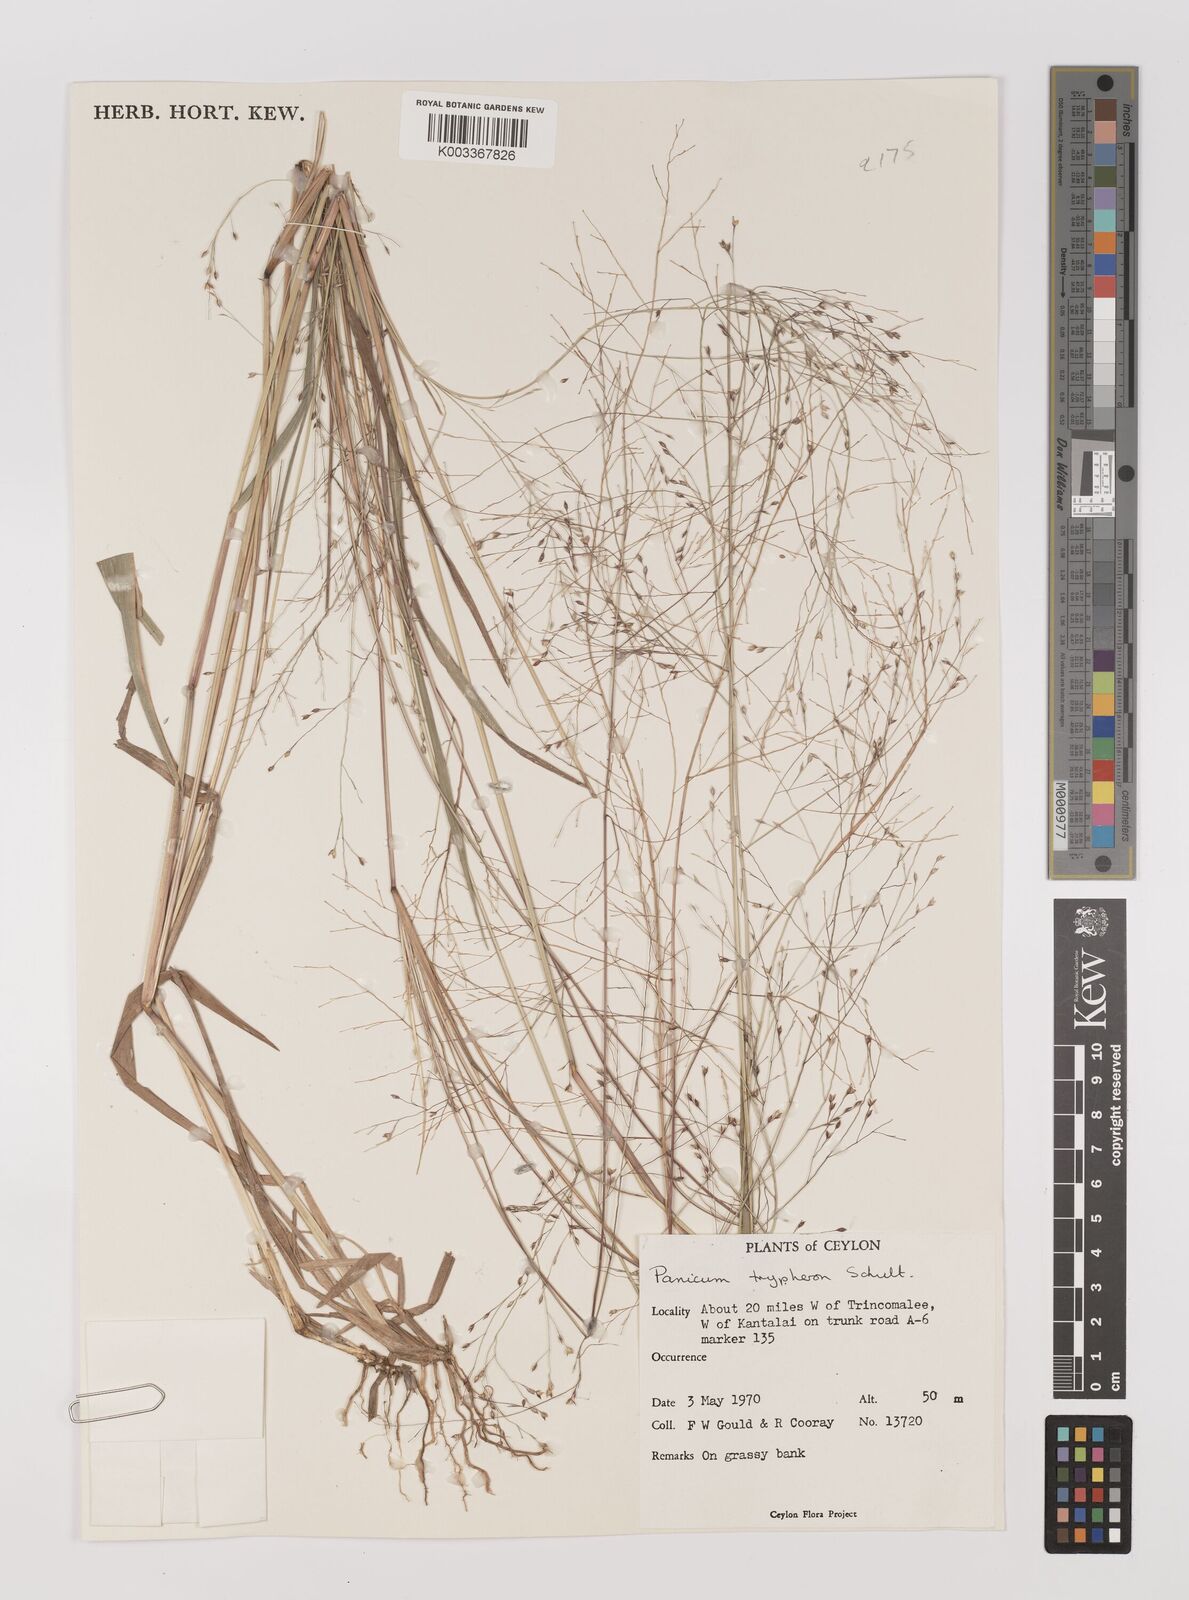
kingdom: Plantae
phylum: Tracheophyta
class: Liliopsida
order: Poales
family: Poaceae
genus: Panicum
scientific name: Panicum curviflorum
